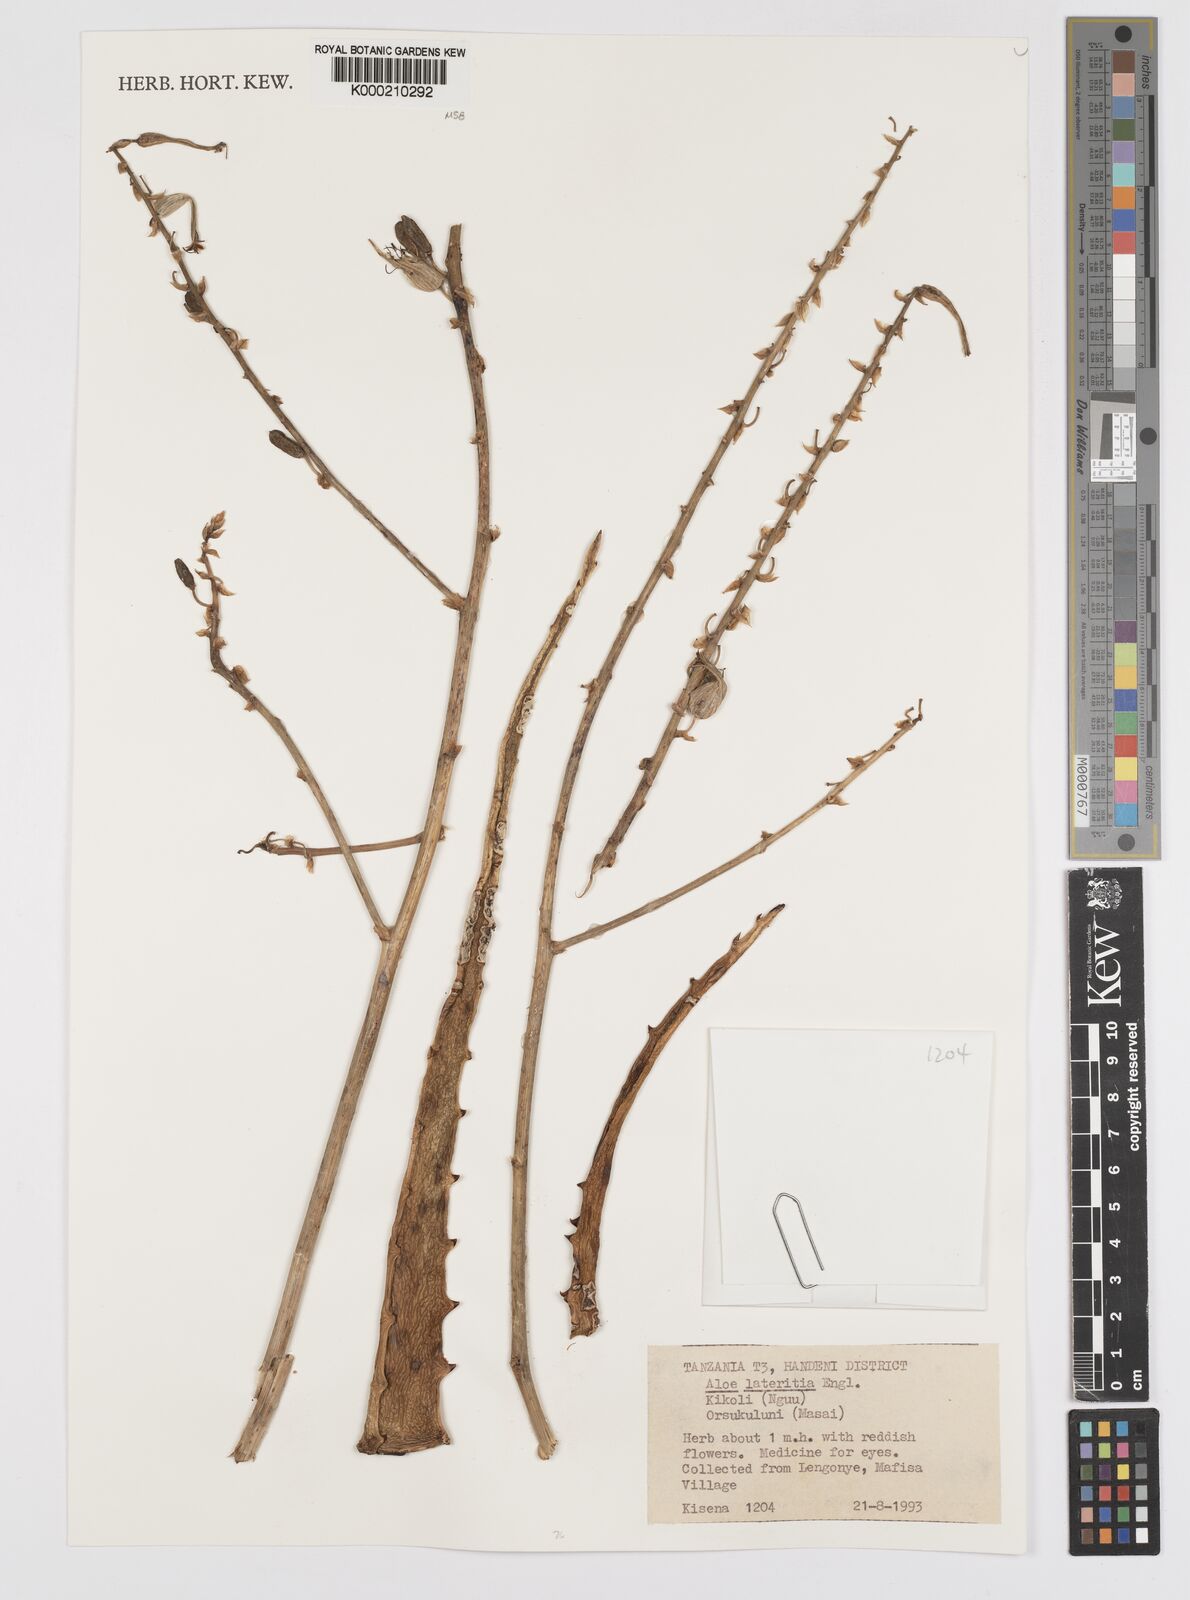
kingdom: Plantae
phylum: Tracheophyta
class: Liliopsida
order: Asparagales
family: Asphodelaceae
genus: Aloe
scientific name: Aloe lateritia
